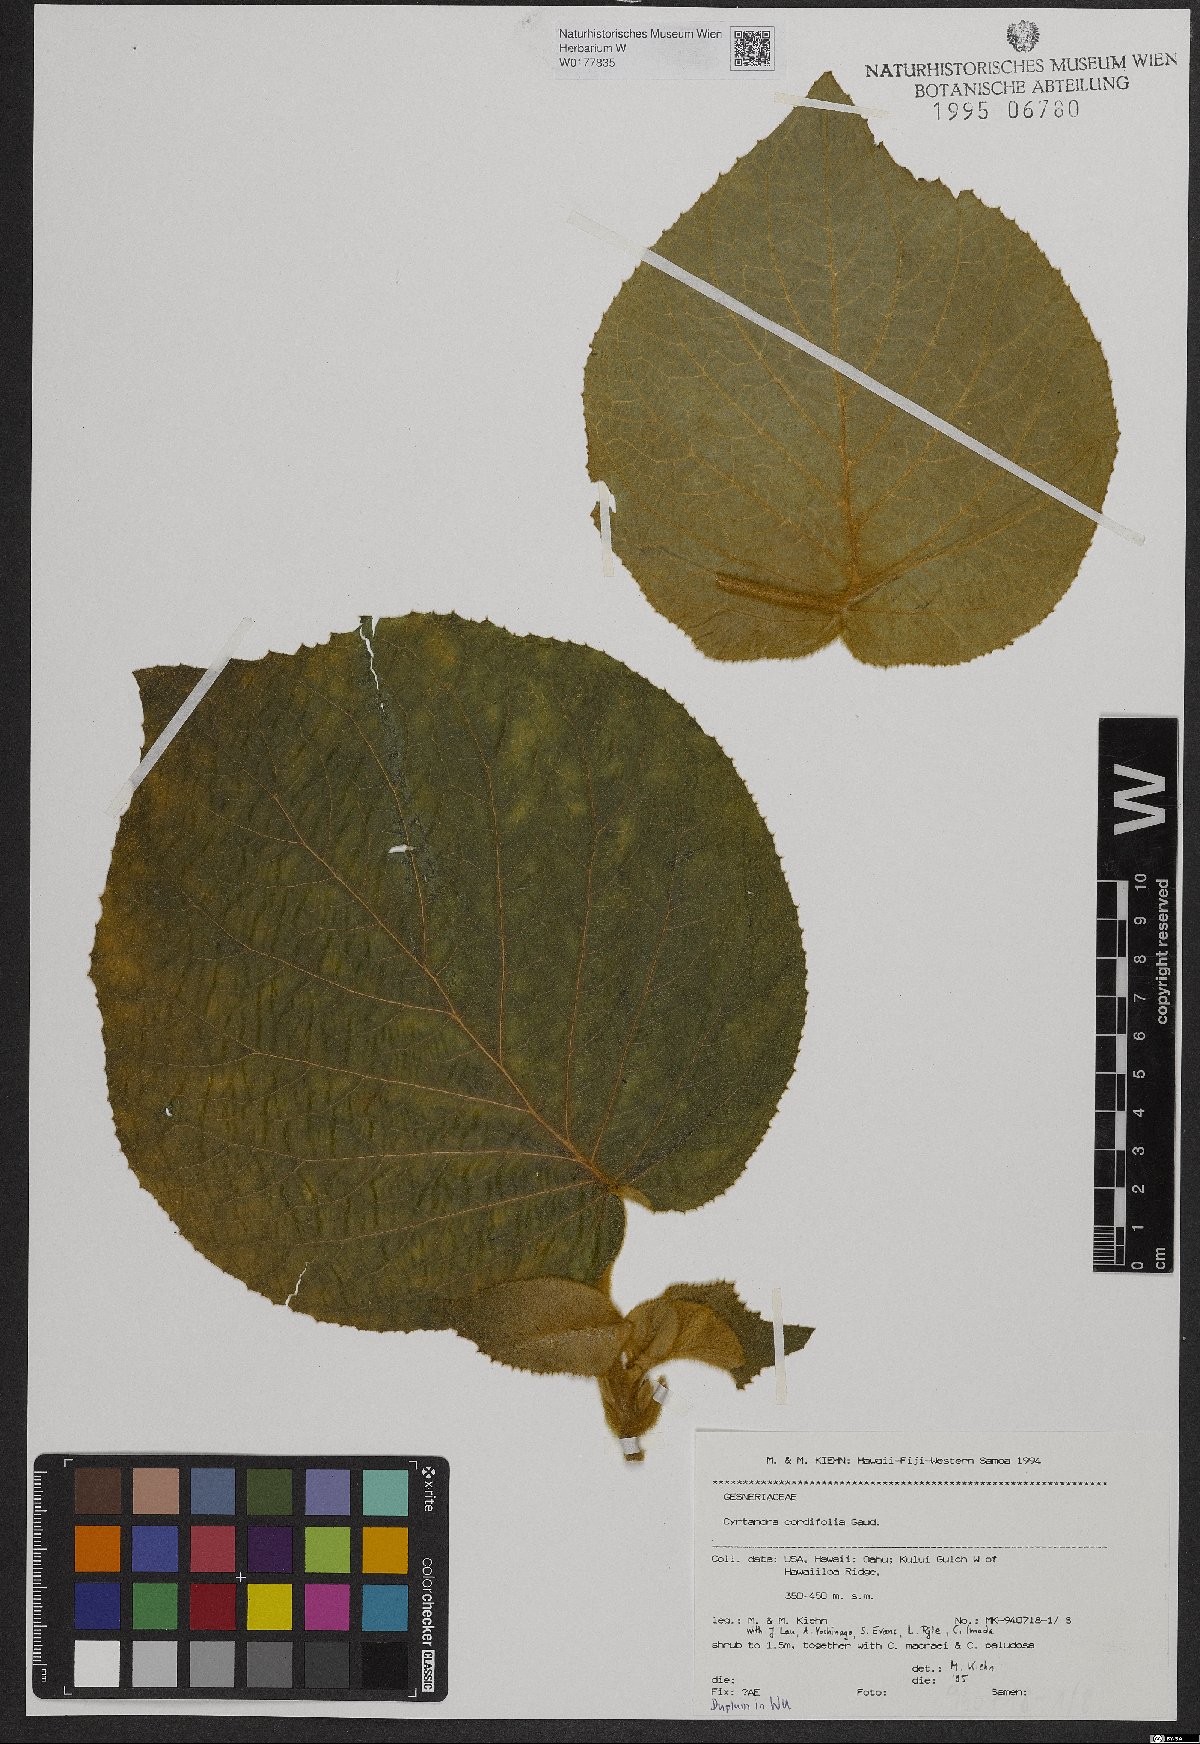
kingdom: Plantae
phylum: Tracheophyta
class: Magnoliopsida
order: Lamiales
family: Gesneriaceae
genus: Cyrtandra
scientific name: Cyrtandra cordifolia
